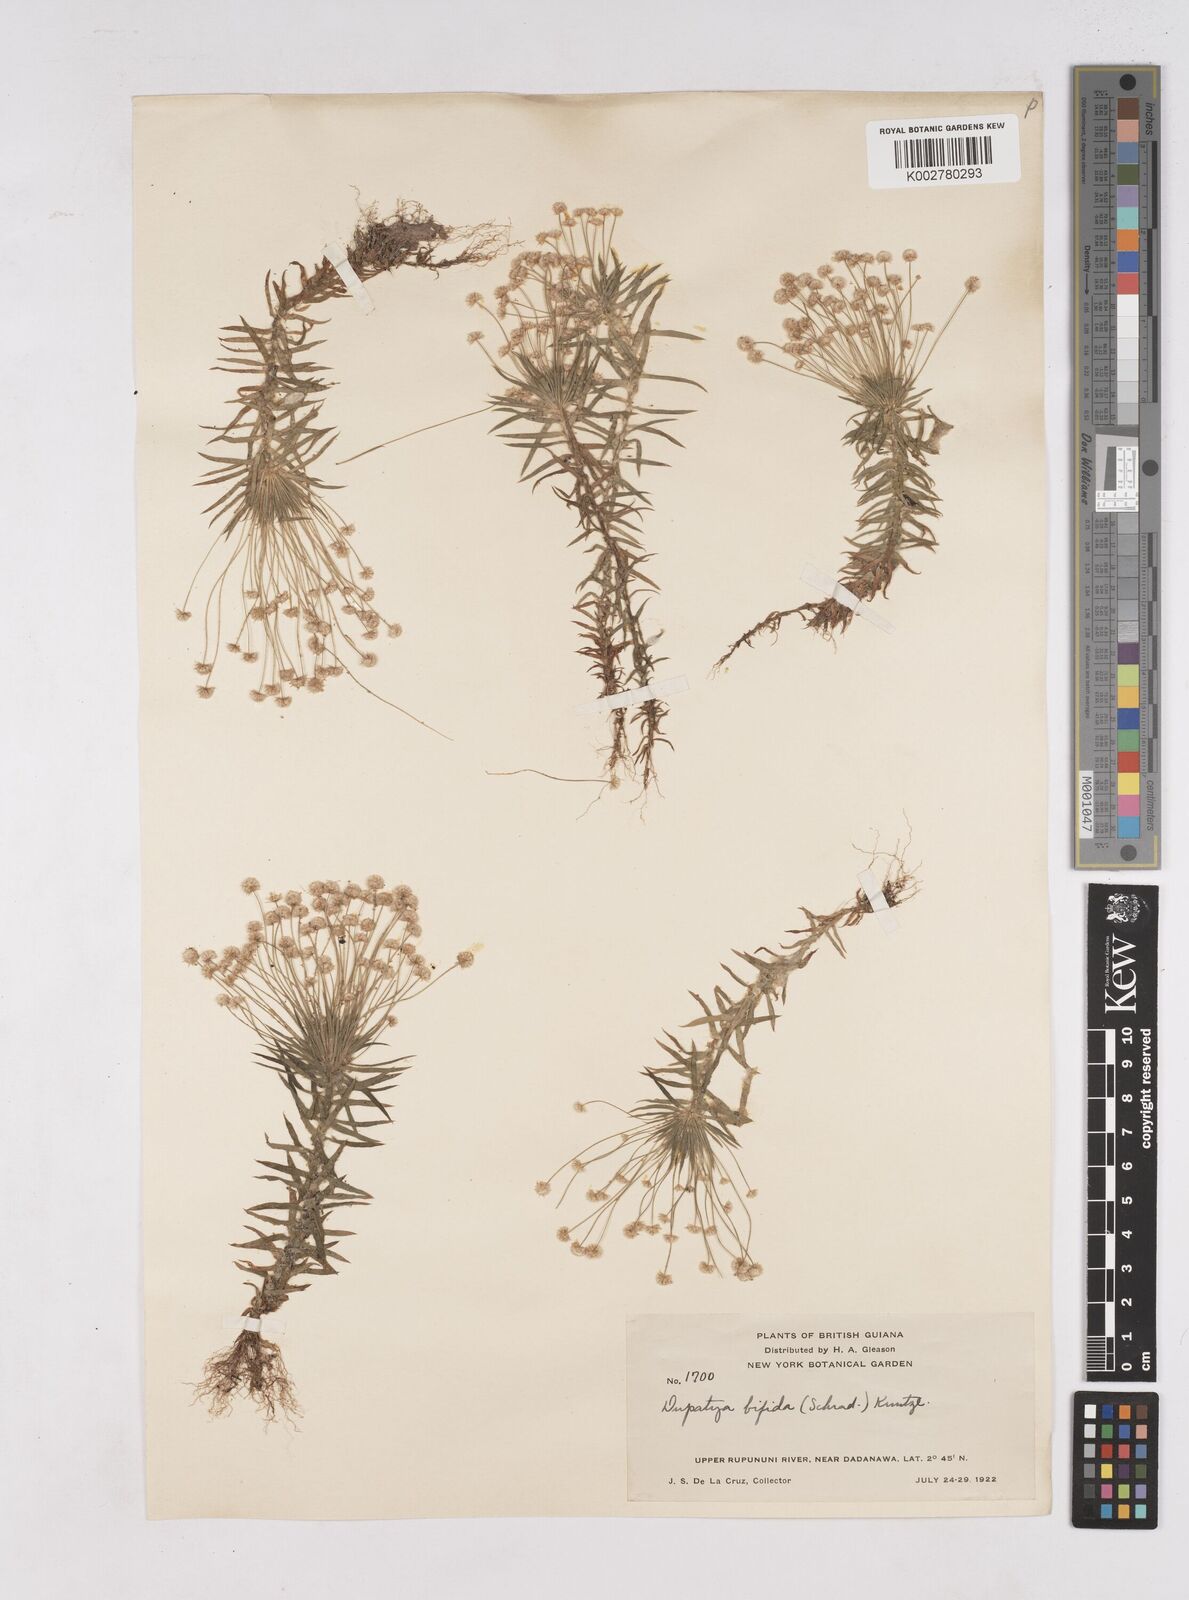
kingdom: Plantae
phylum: Tracheophyta
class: Liliopsida
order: Poales
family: Eriocaulaceae
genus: Paepalanthus
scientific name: Paepalanthus bifidus
